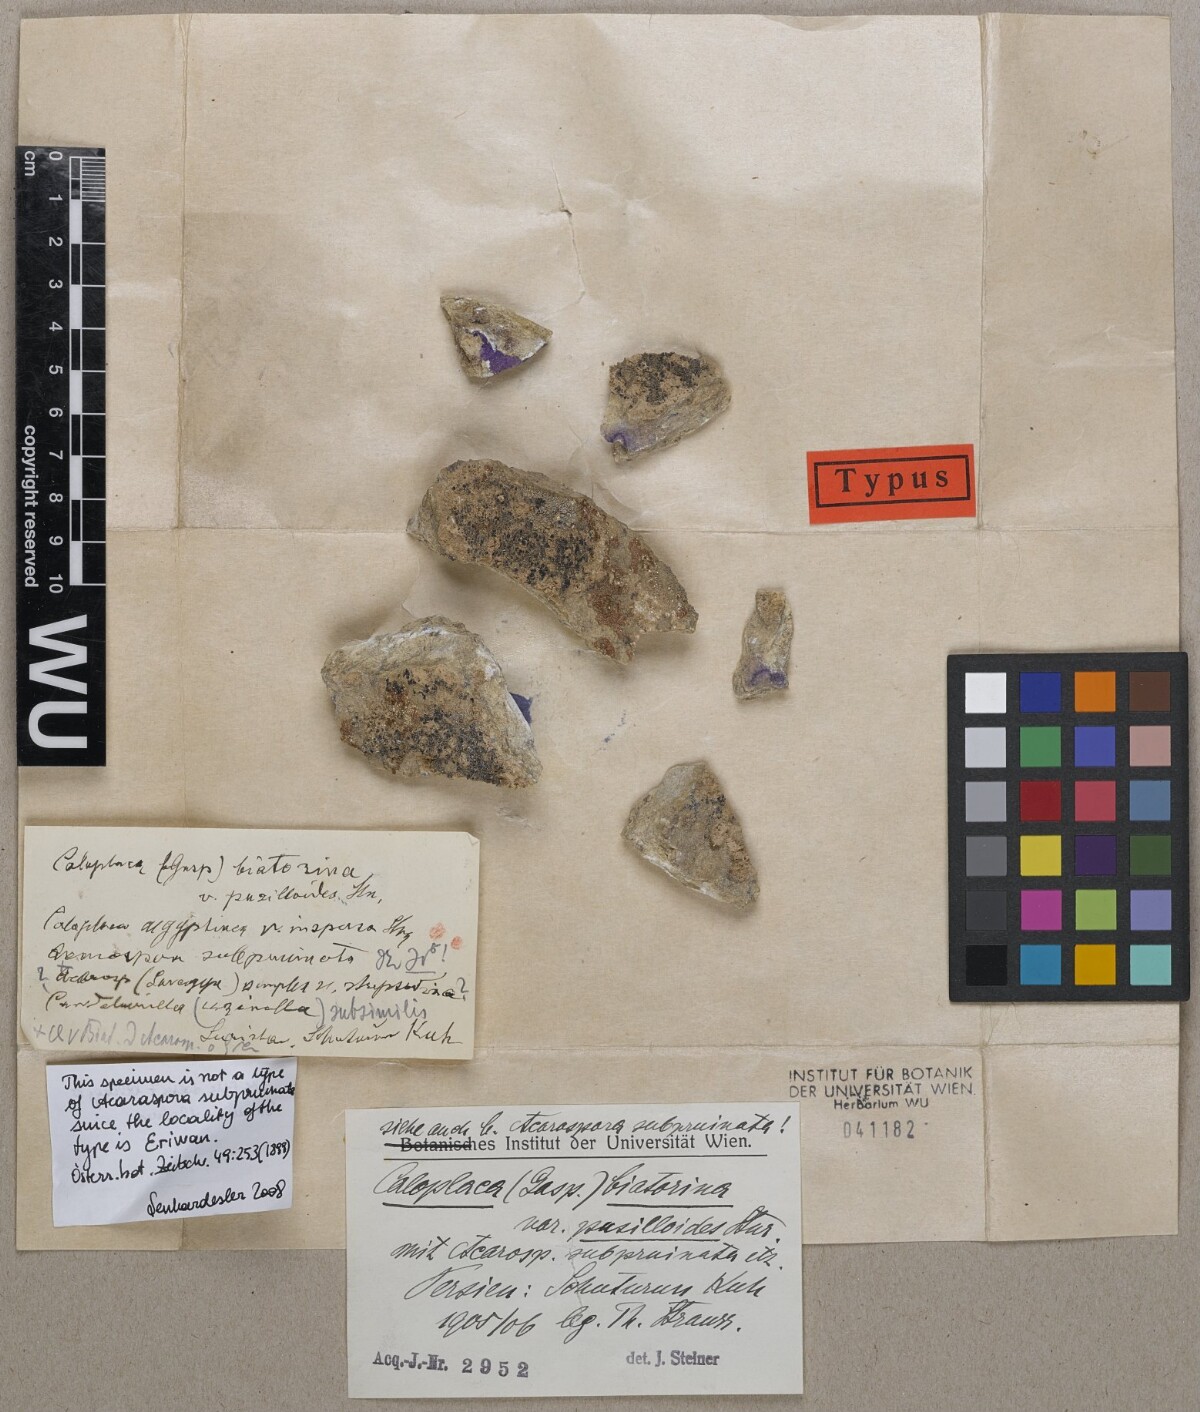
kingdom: Fungi
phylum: Ascomycota
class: Lecanoromycetes
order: Teloschistales
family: Teloschistaceae
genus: Calogaya
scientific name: Calogaya biatorina
